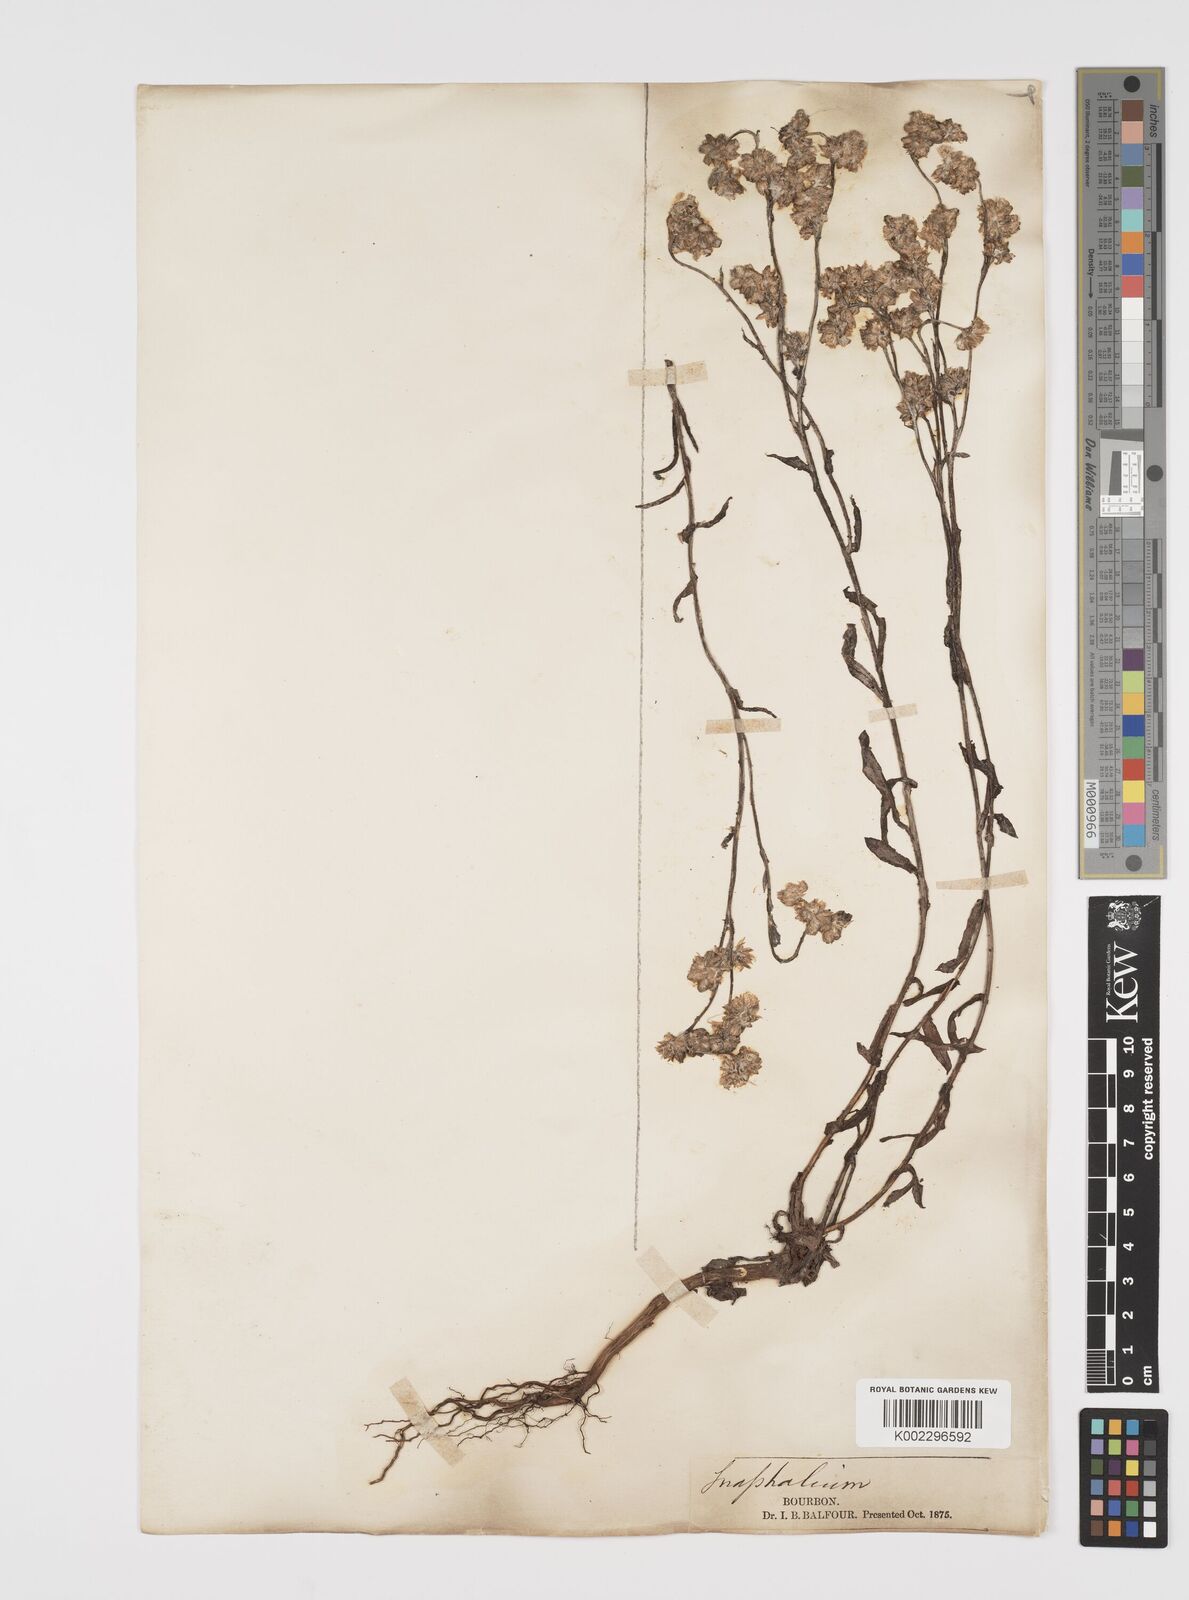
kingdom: Plantae
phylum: Tracheophyta
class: Magnoliopsida
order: Asterales
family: Asteraceae
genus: Pseudognaphalium
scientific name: Pseudognaphalium
